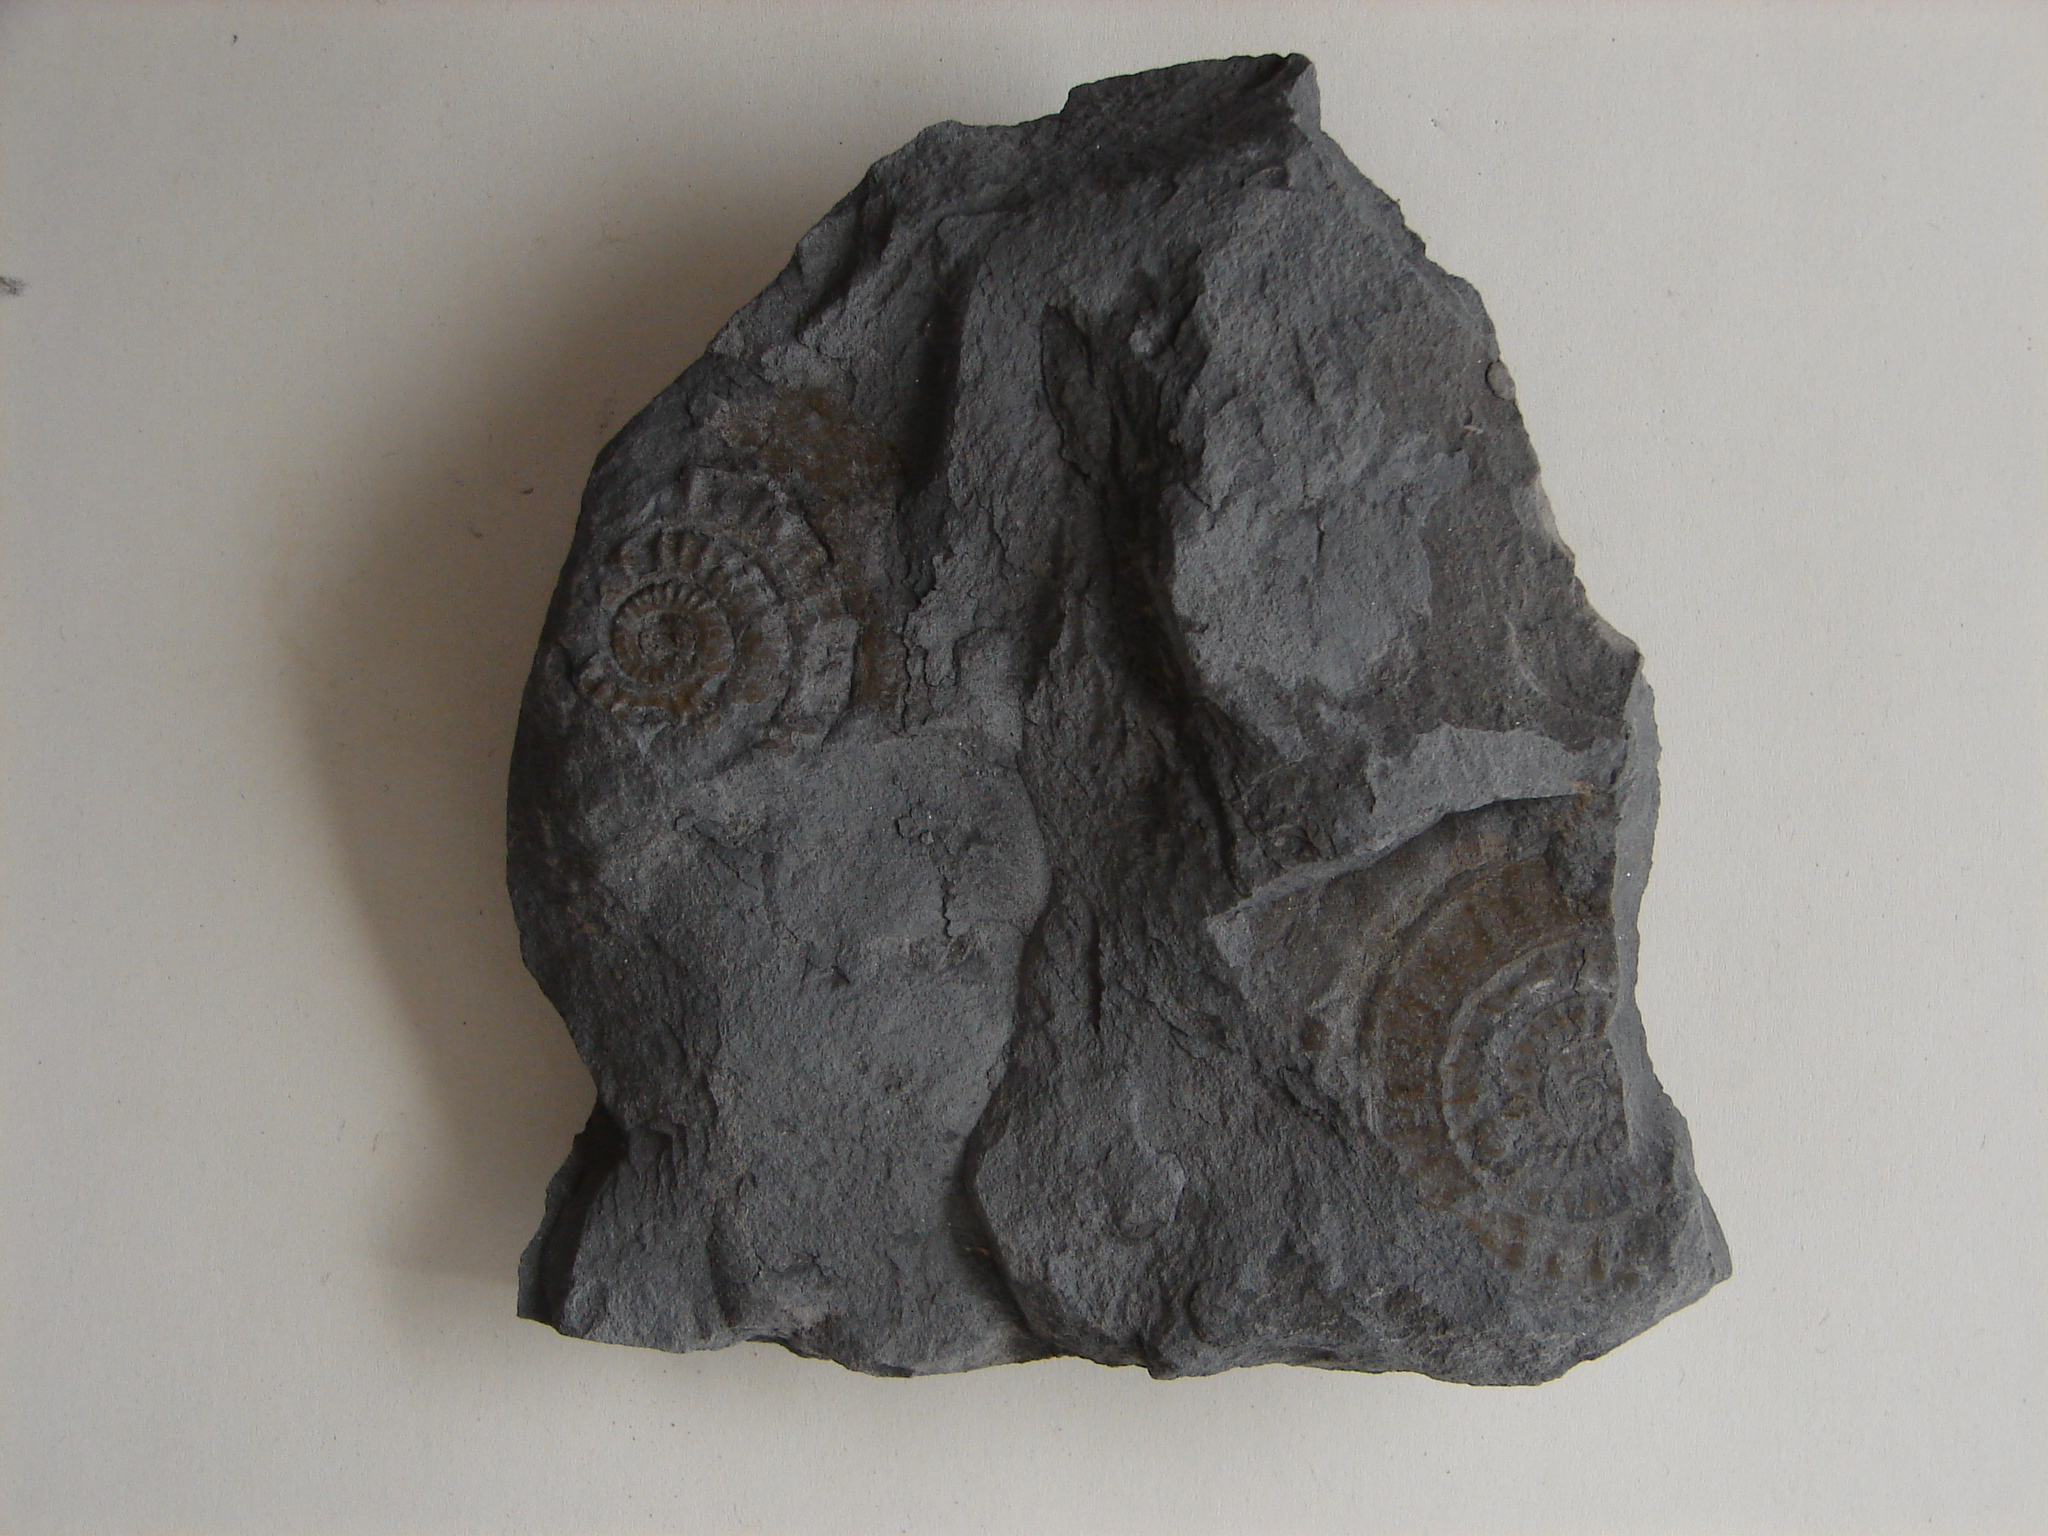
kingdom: Animalia
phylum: Mollusca
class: Cephalopoda
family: Psiloceratidae
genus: Caloceras
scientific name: Caloceras
